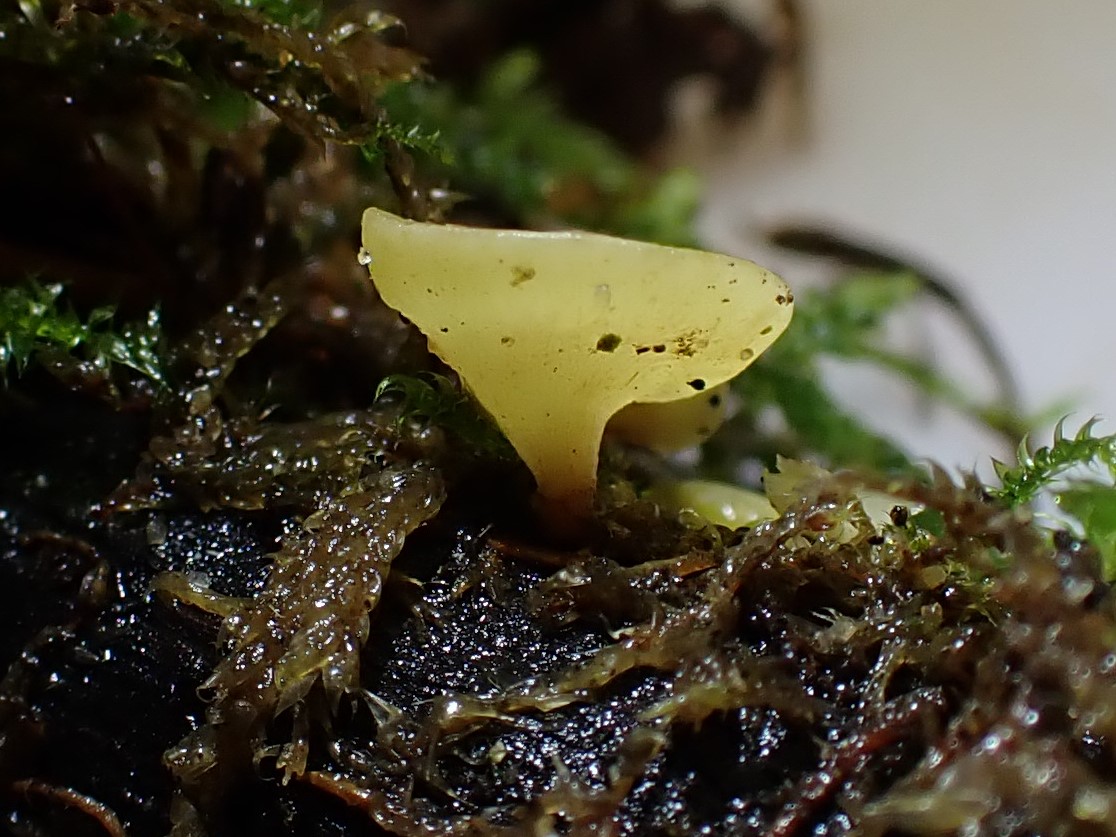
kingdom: Fungi
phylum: Ascomycota
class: Leotiomycetes
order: Helotiales
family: Helotiaceae
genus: Hymenoscyphus
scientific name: Hymenoscyphus
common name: stilkskive
